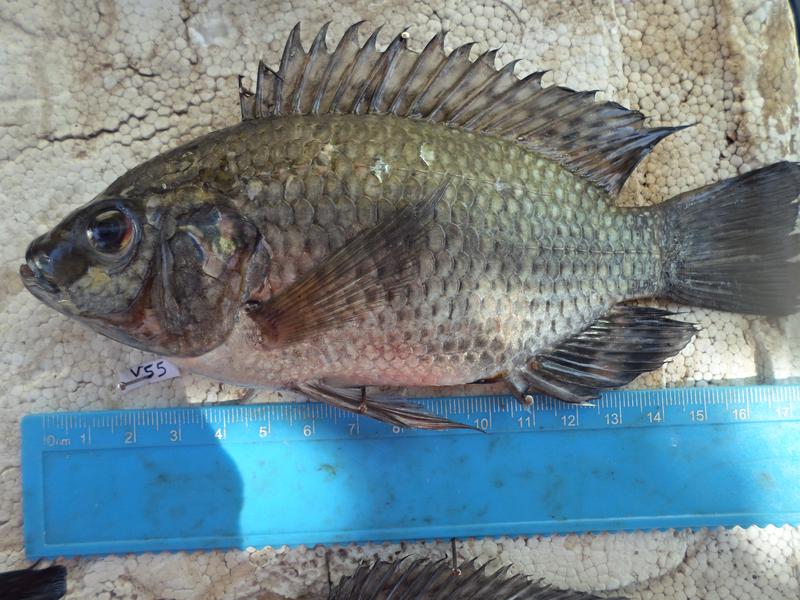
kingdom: Animalia
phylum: Chordata
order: Perciformes
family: Cichlidae
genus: Oreochromis
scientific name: Oreochromis leucostictus
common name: Blue spotted tilapia
